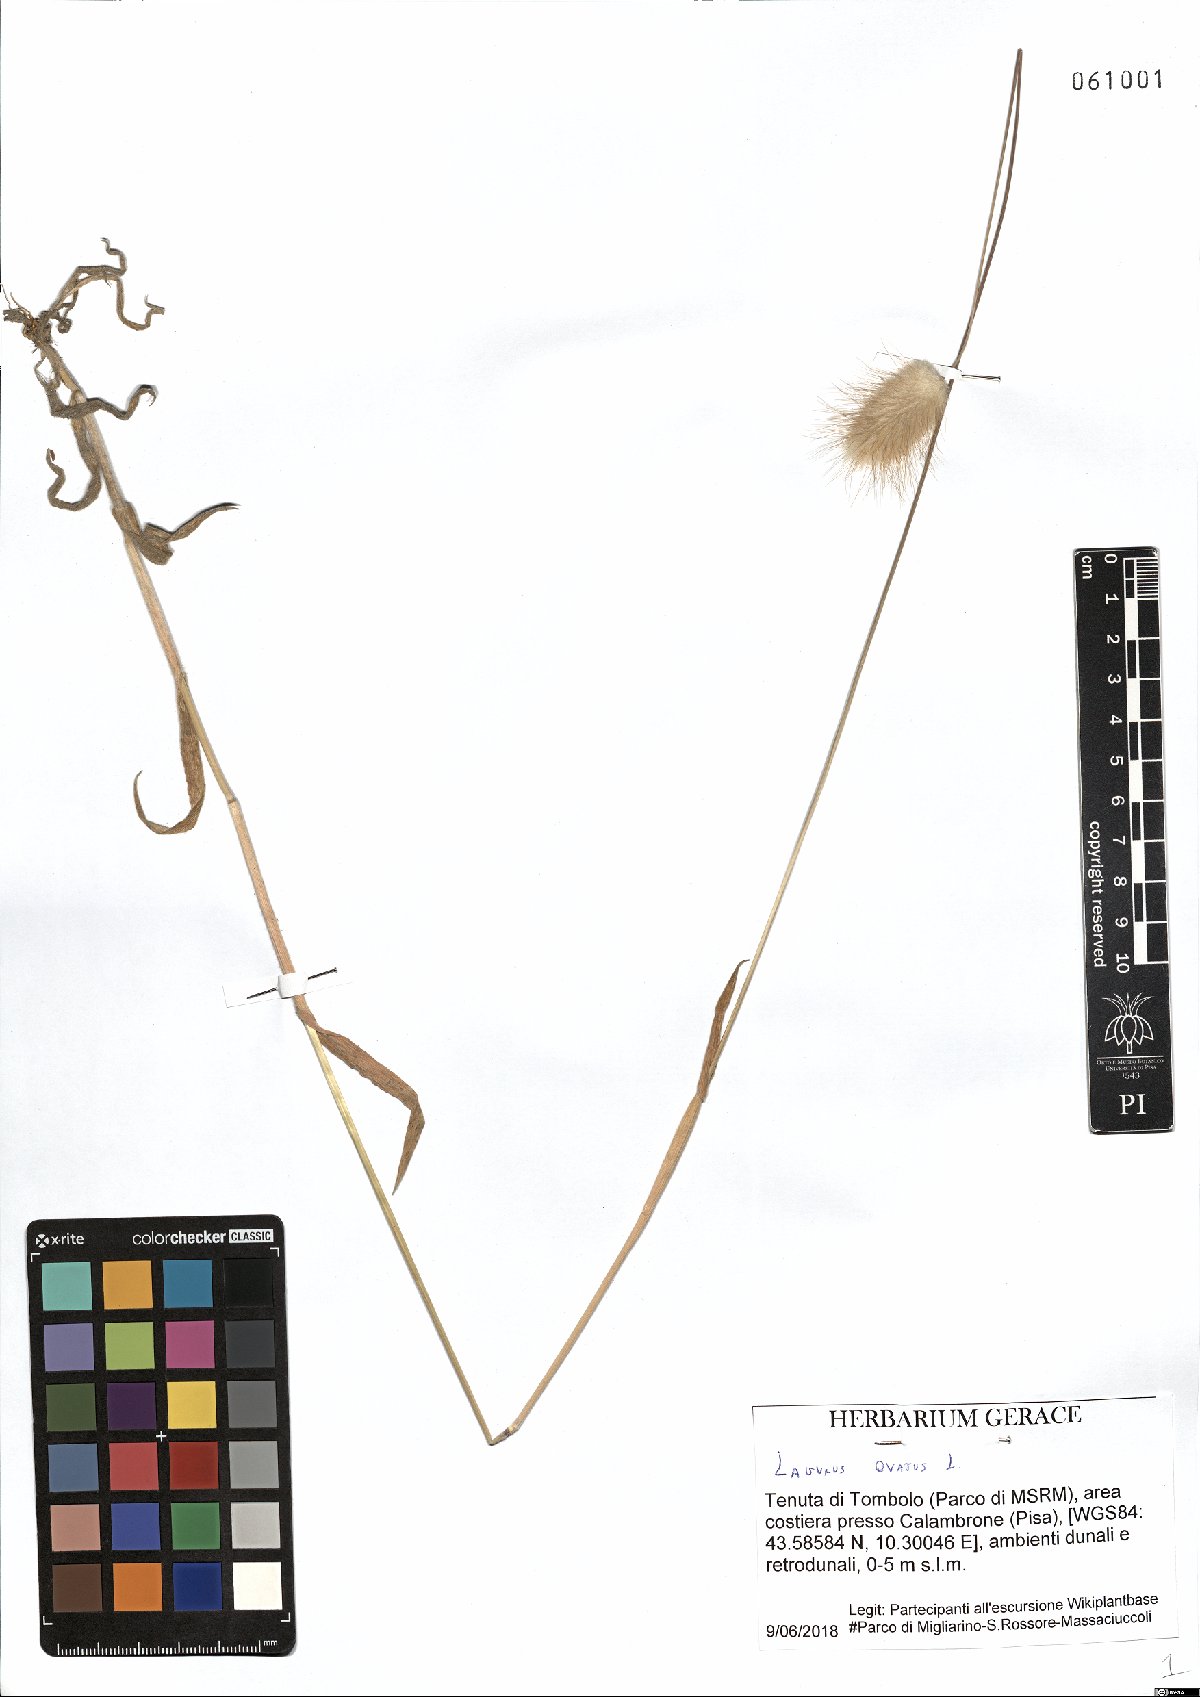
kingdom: Plantae
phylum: Tracheophyta
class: Liliopsida
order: Poales
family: Poaceae
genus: Lagurus
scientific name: Lagurus ovatus
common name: Hare's-tail
